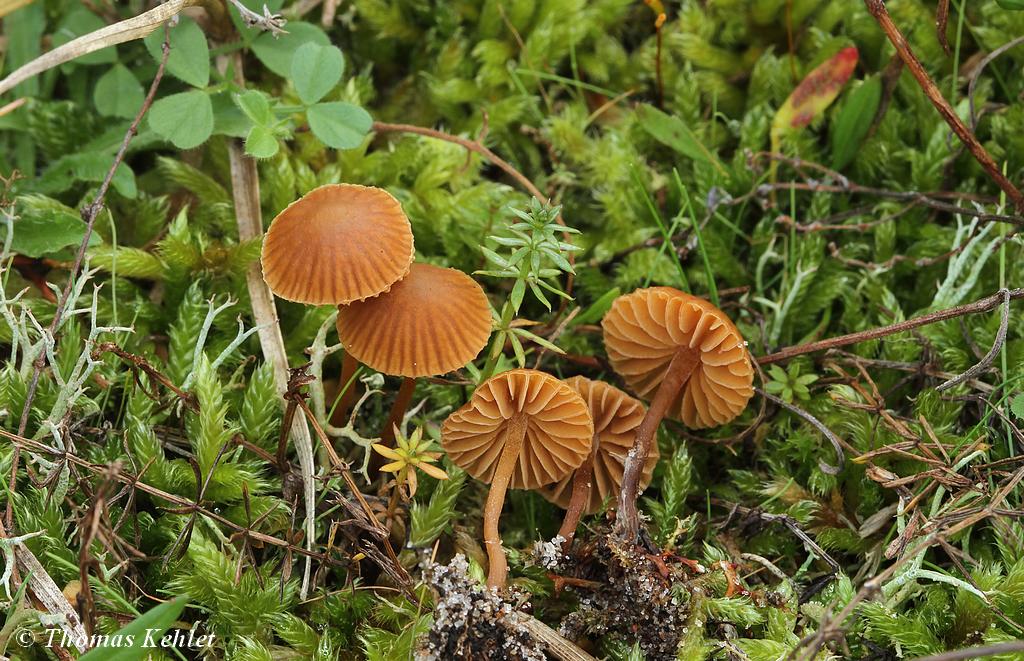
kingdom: Fungi
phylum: Basidiomycota
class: Agaricomycetes
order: Agaricales
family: Hymenogastraceae
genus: Galerina
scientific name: Galerina vittiformis
